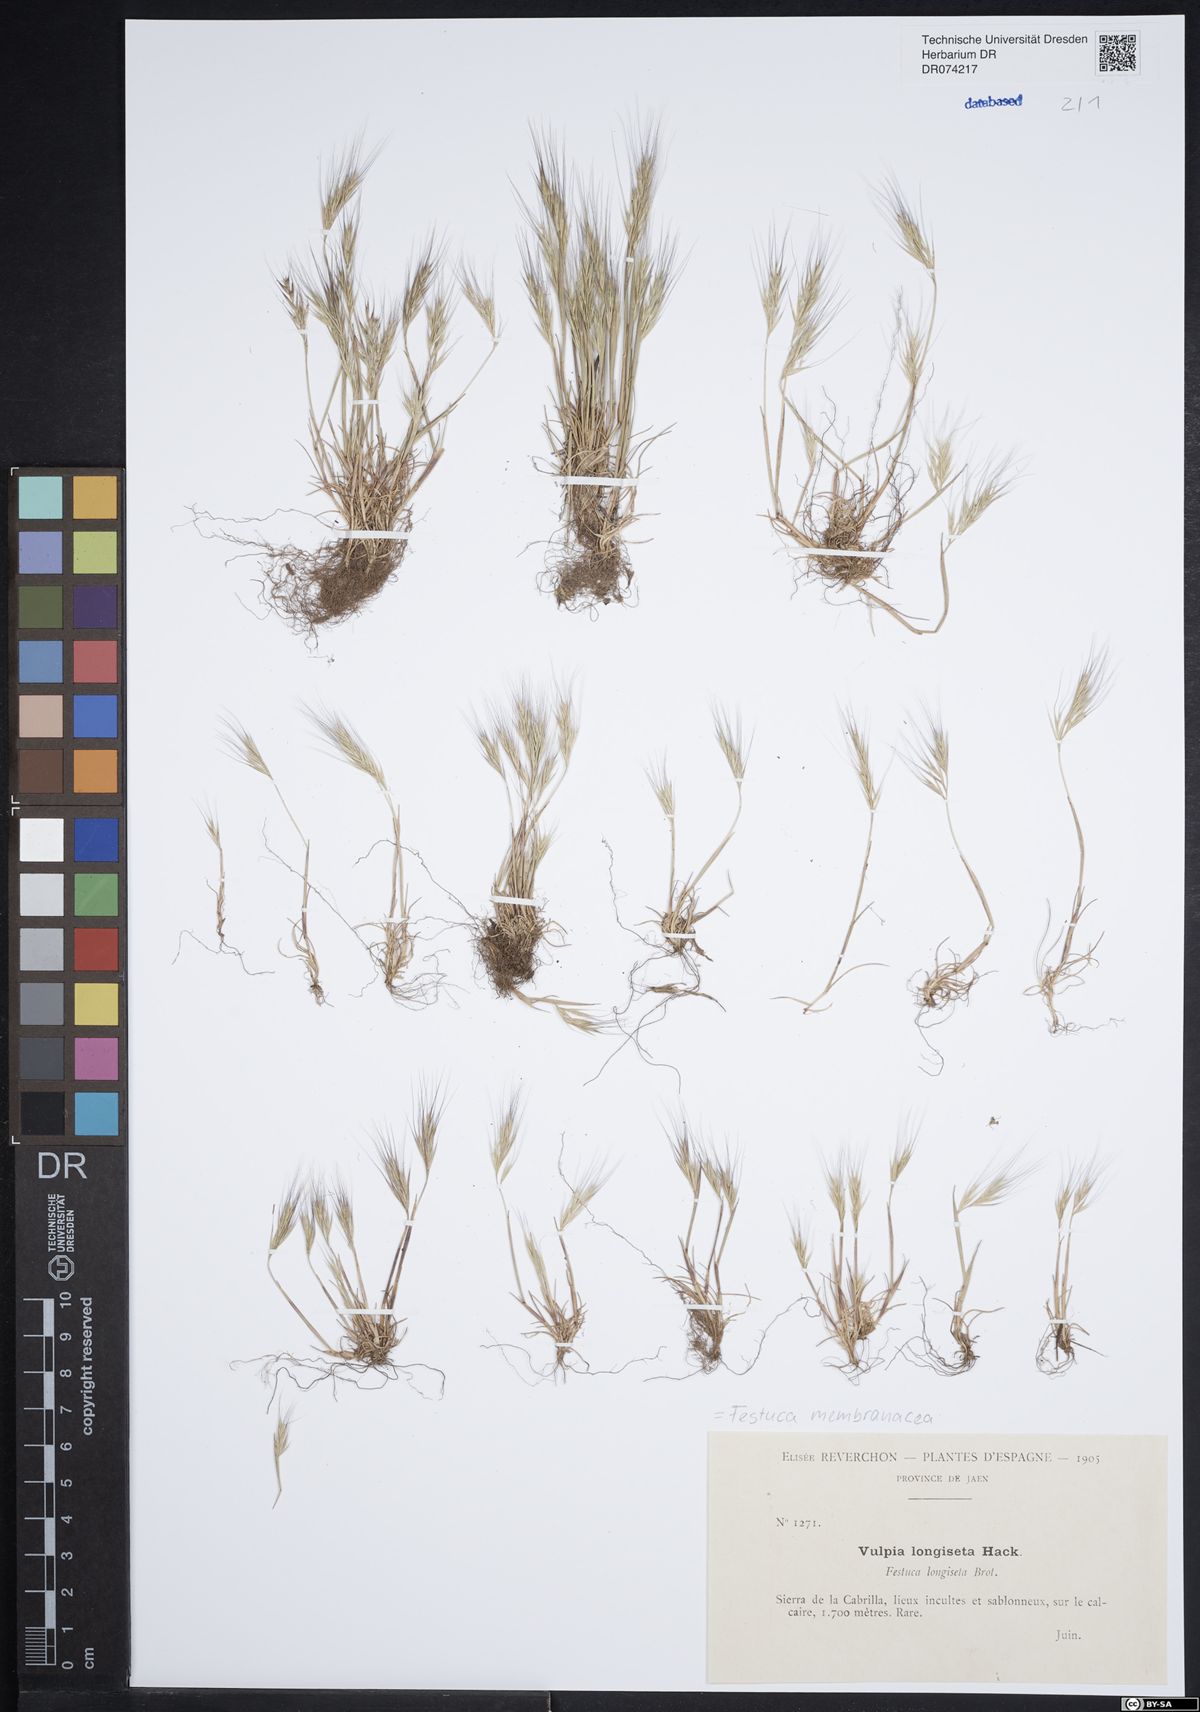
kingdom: Plantae
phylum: Tracheophyta
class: Liliopsida
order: Poales
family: Poaceae
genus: Festuca
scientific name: Festuca membranacea
